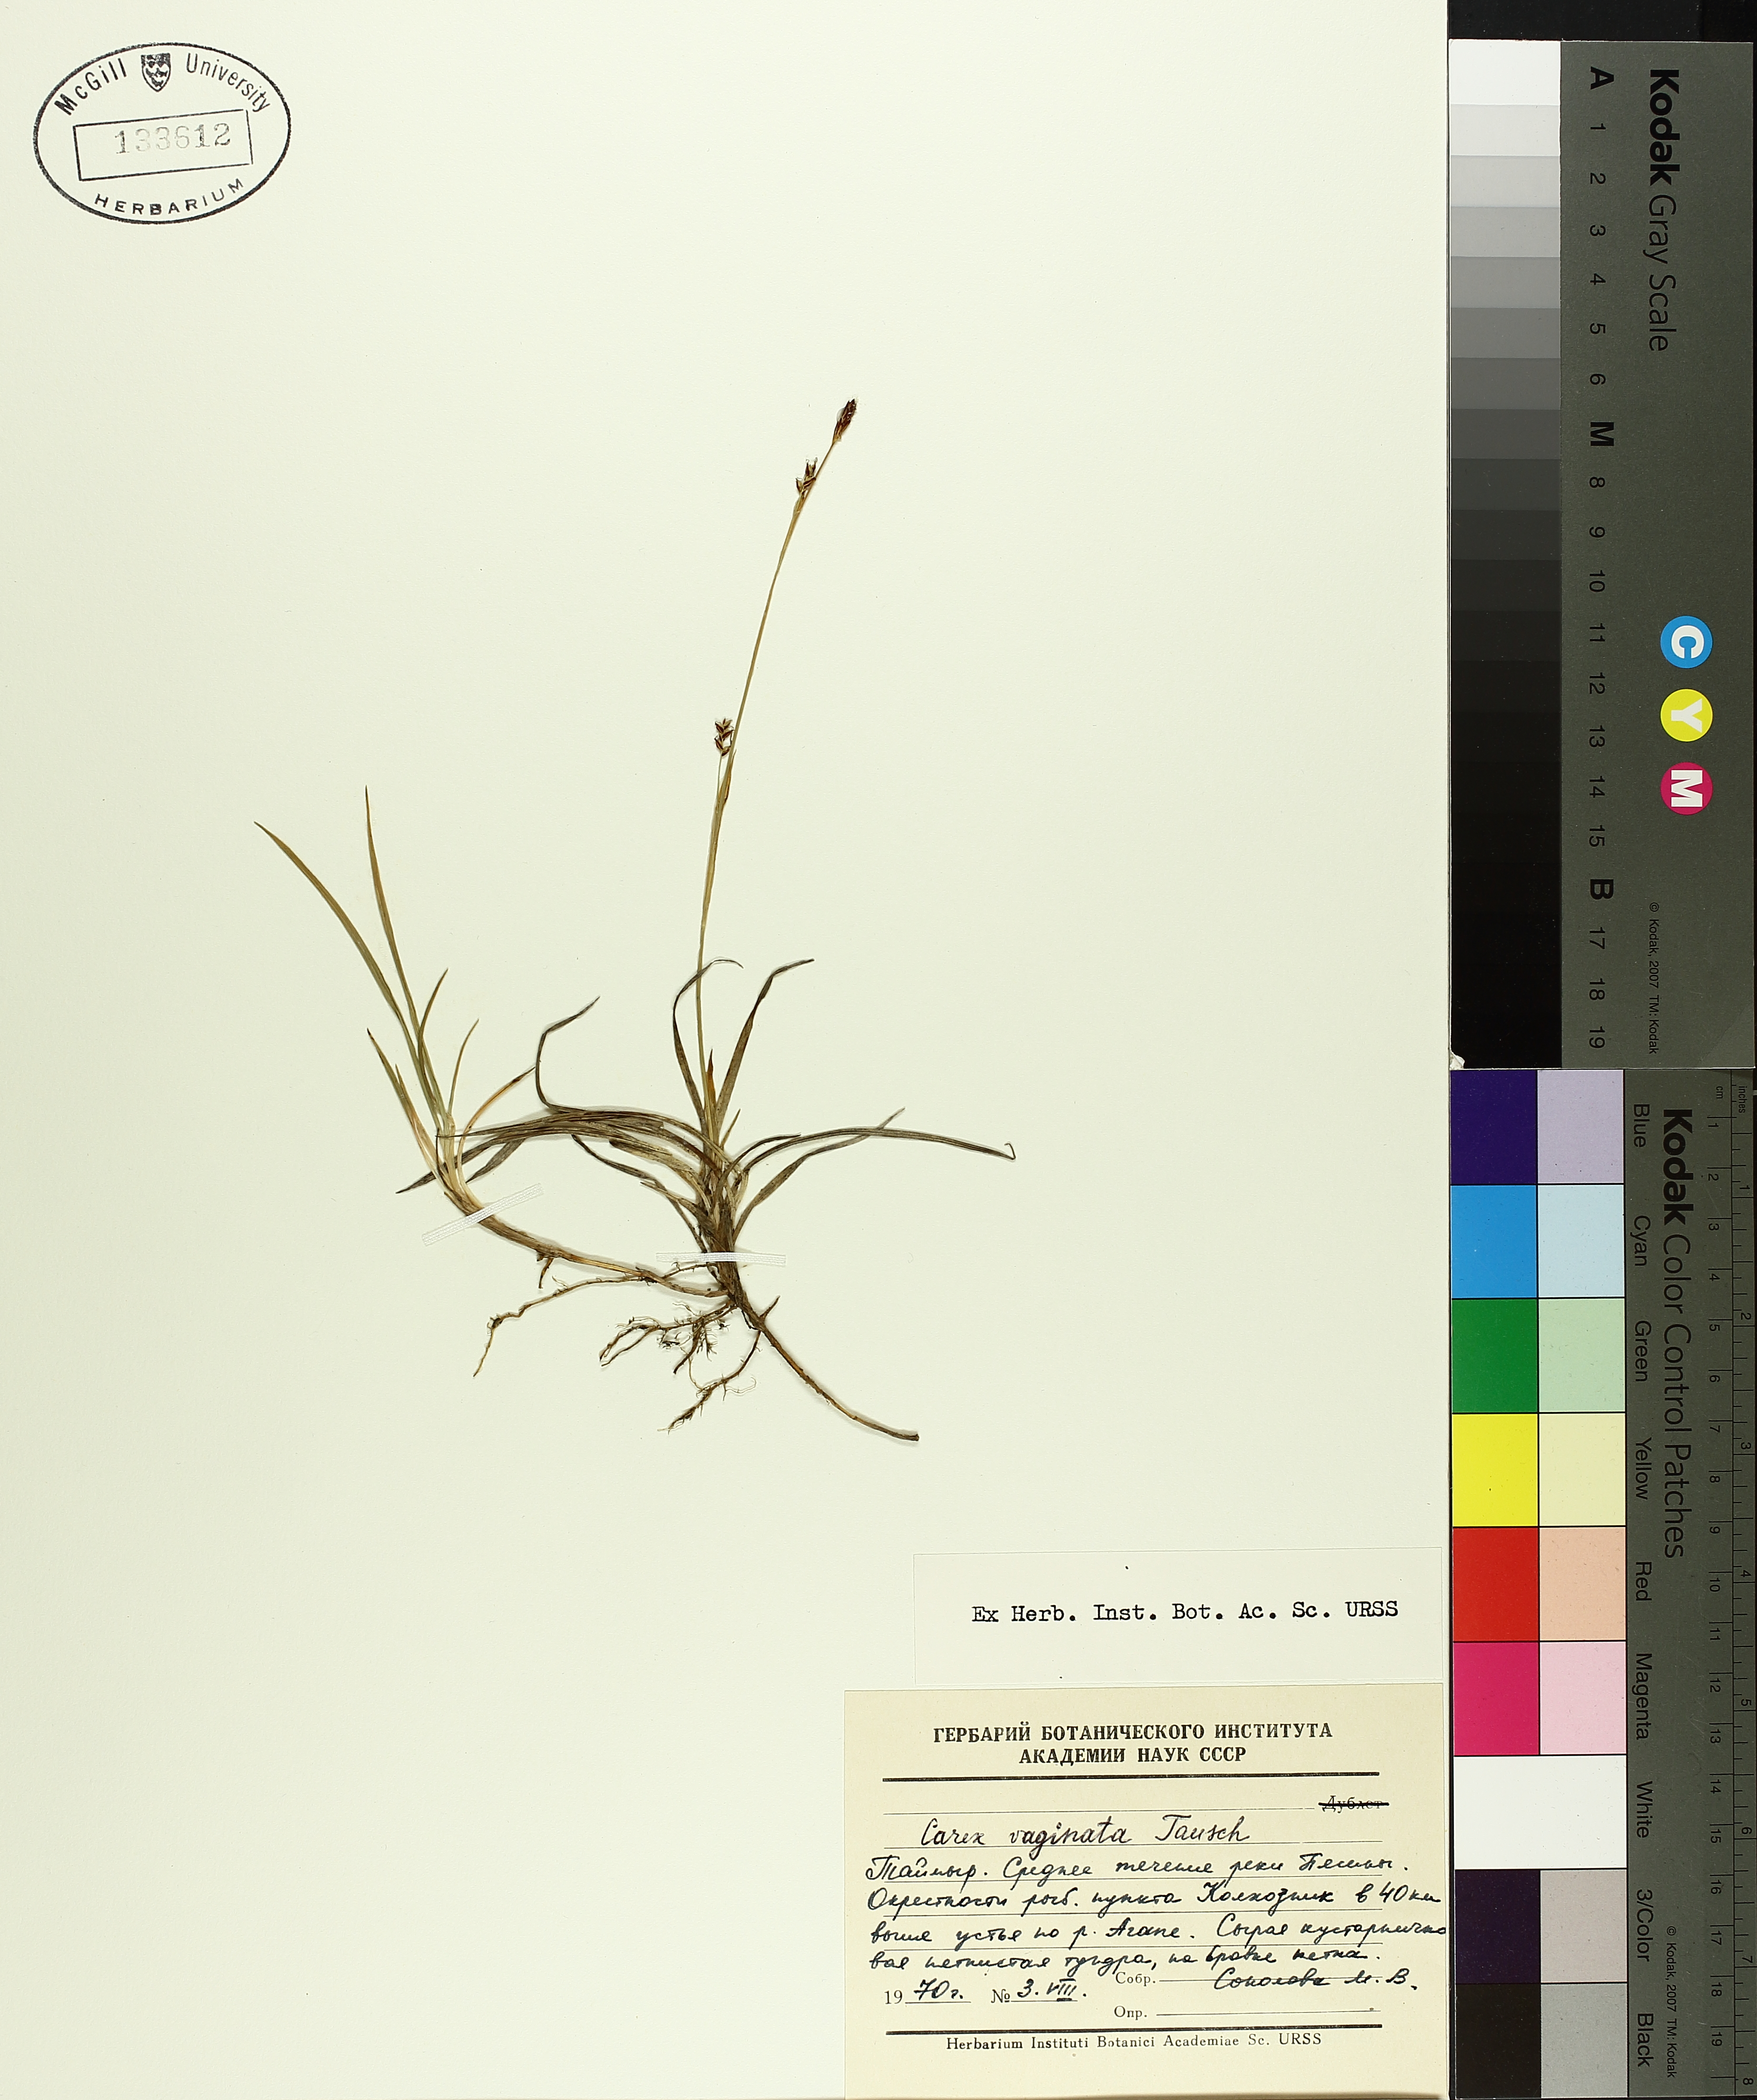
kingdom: Plantae
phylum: Tracheophyta
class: Liliopsida
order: Poales
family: Cyperaceae
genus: Carex
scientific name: Carex vaginata
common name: Sheathed sedge
